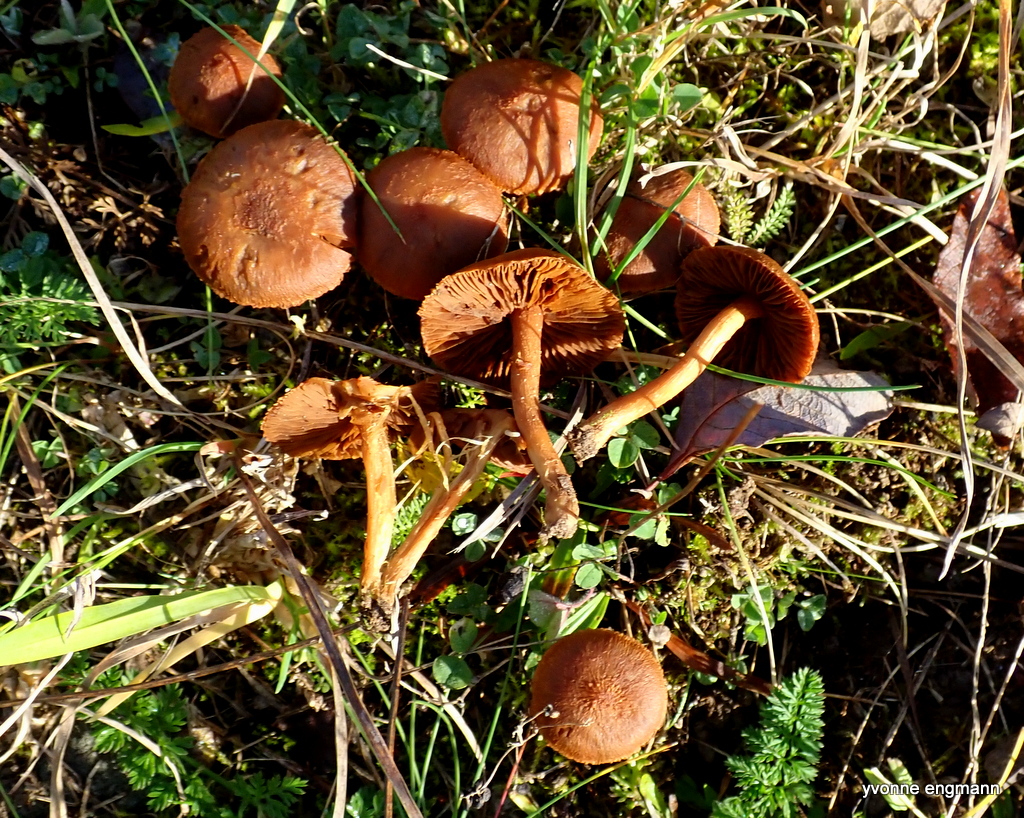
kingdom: Fungi
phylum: Basidiomycota
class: Agaricomycetes
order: Agaricales
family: Cortinariaceae
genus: Cortinarius
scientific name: Cortinarius
